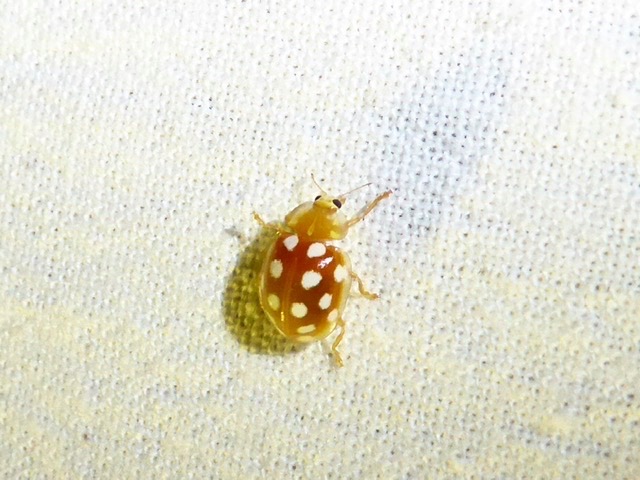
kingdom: Animalia
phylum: Arthropoda
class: Insecta
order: Coleoptera
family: Coccinellidae
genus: Halyzia
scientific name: Halyzia sedecimguttata
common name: Sekstenplettet mariehøne
